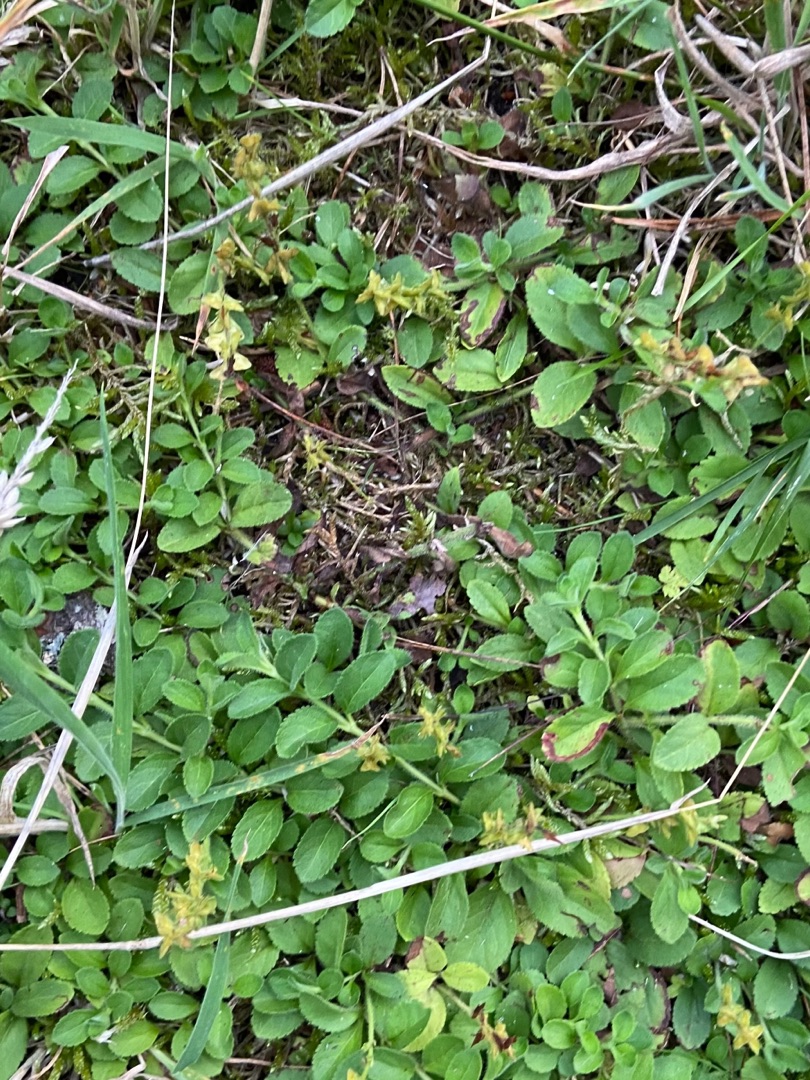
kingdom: Plantae
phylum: Tracheophyta
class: Magnoliopsida
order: Lamiales
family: Plantaginaceae
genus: Veronica
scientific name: Veronica officinalis
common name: Læge-ærenpris
